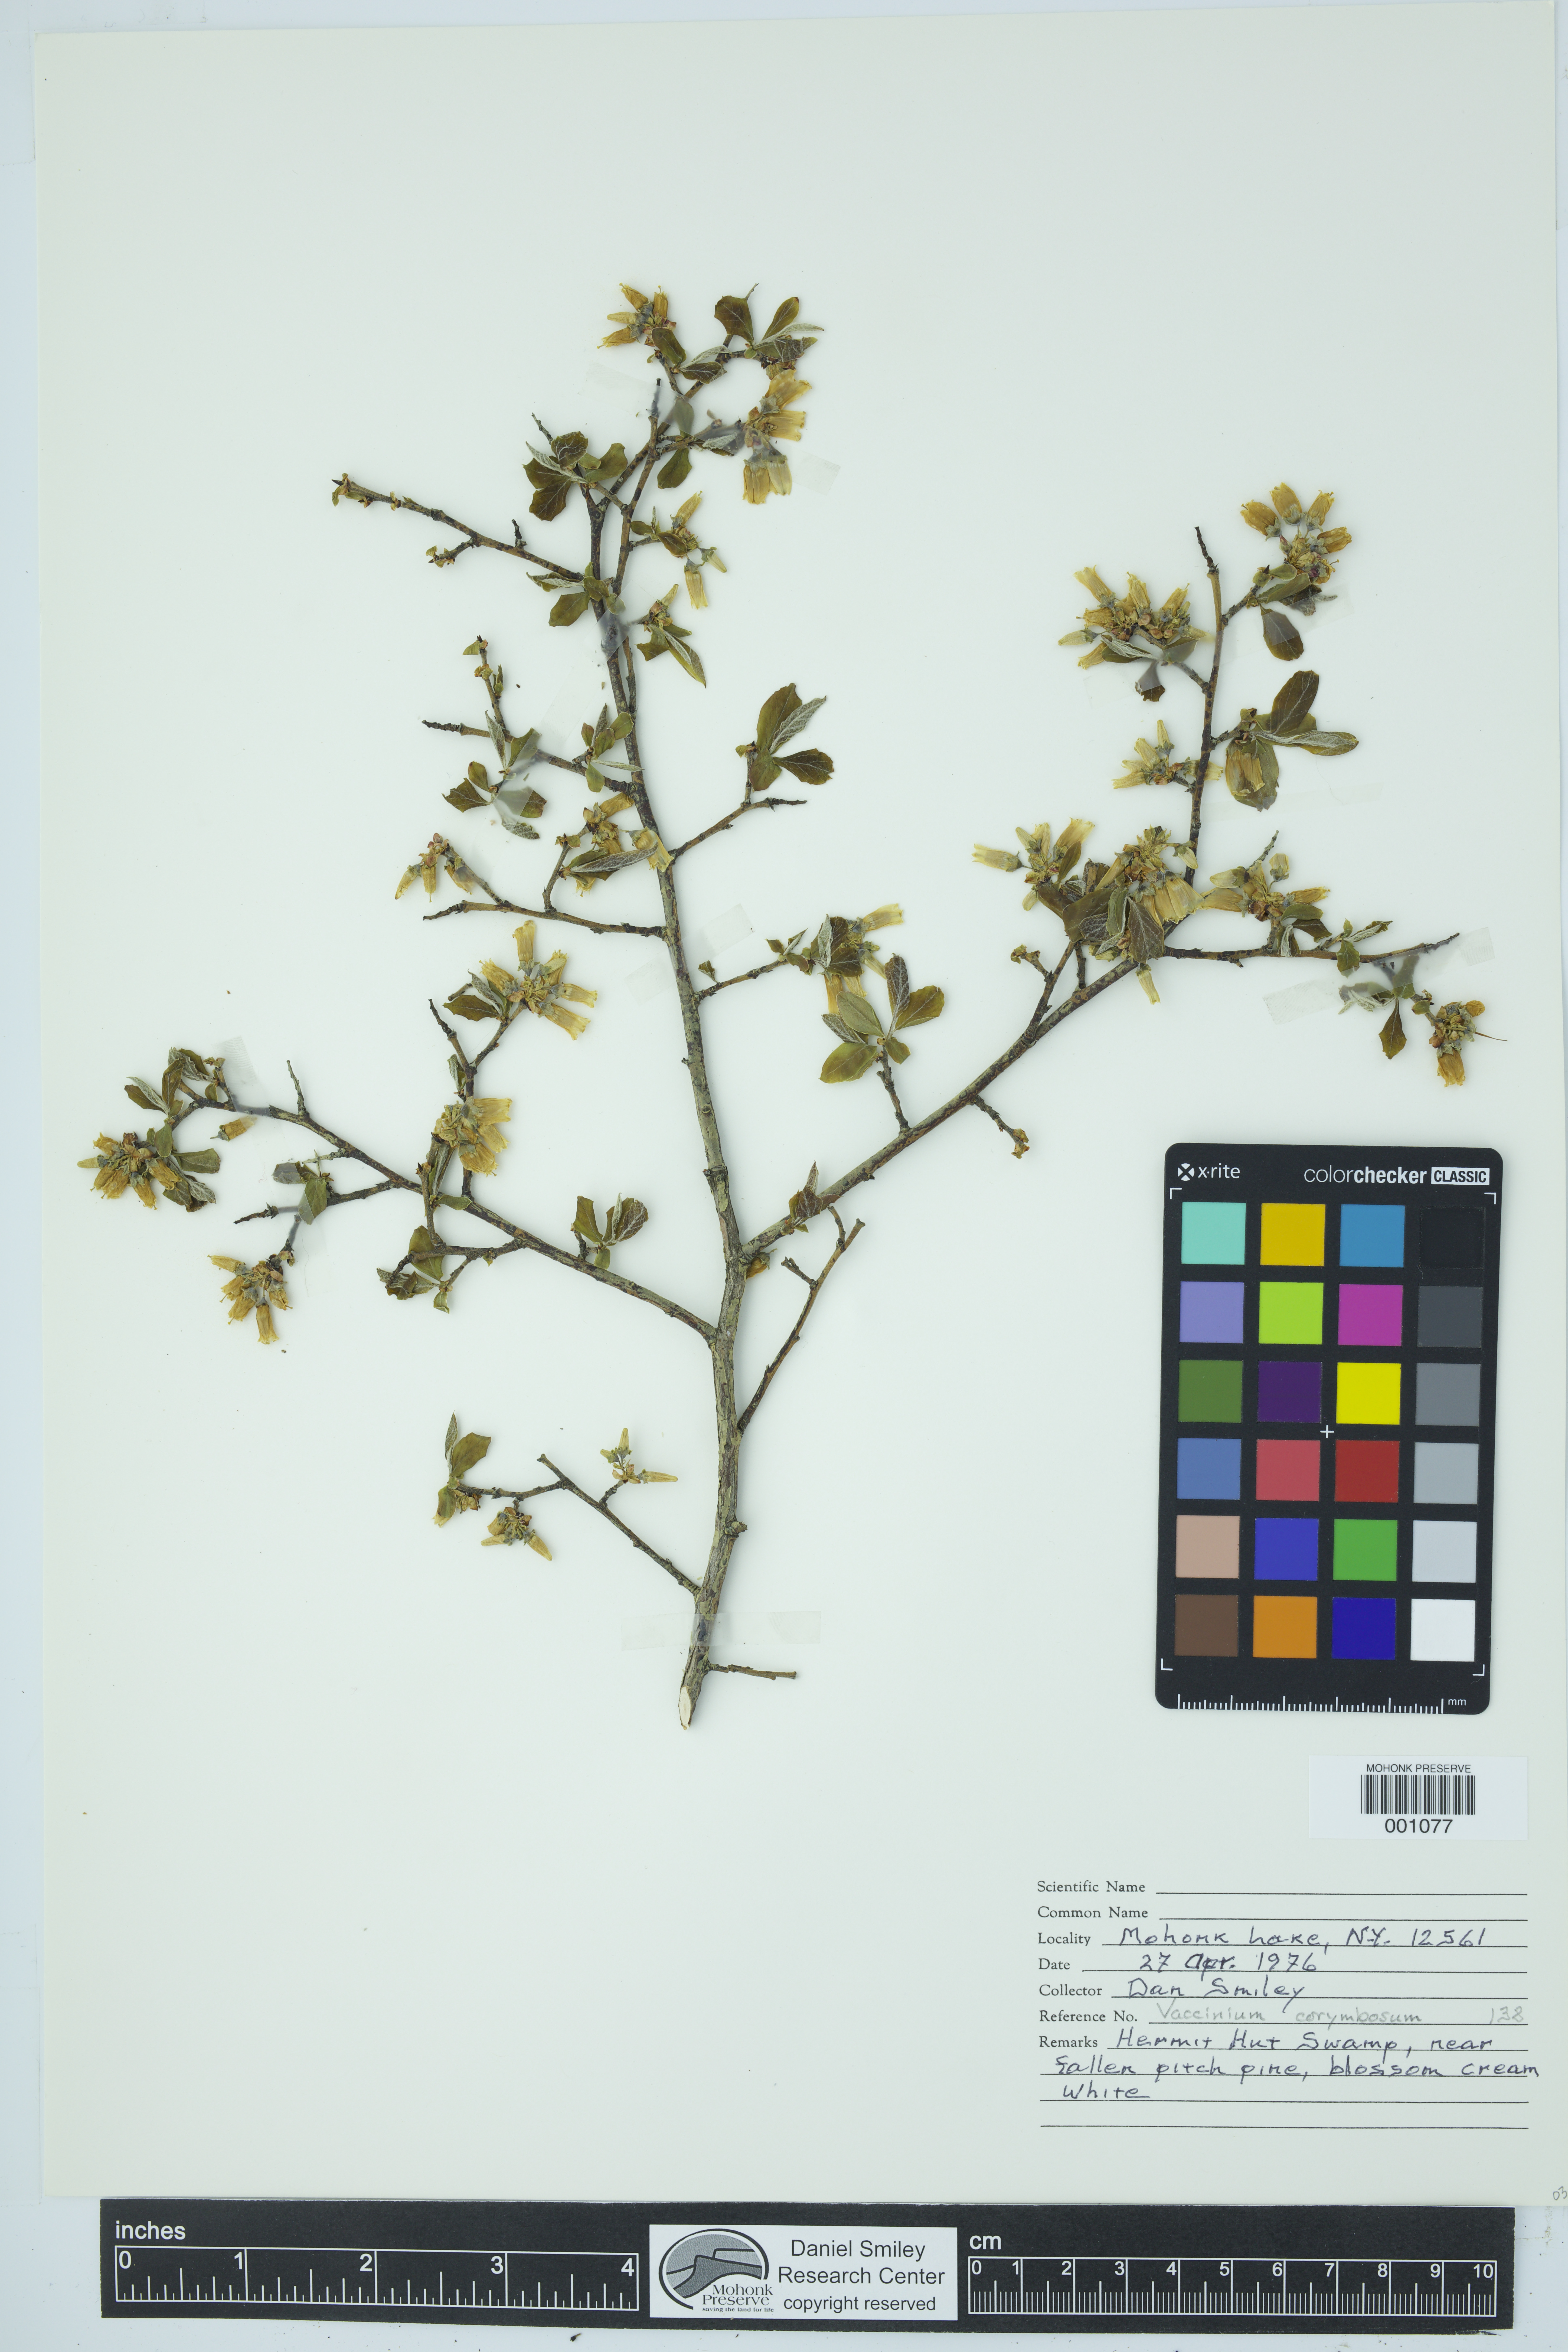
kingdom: Plantae
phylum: Tracheophyta
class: Magnoliopsida
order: Ericales
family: Ericaceae
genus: Vaccinium
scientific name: Vaccinium corymbosum
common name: Blueberry
